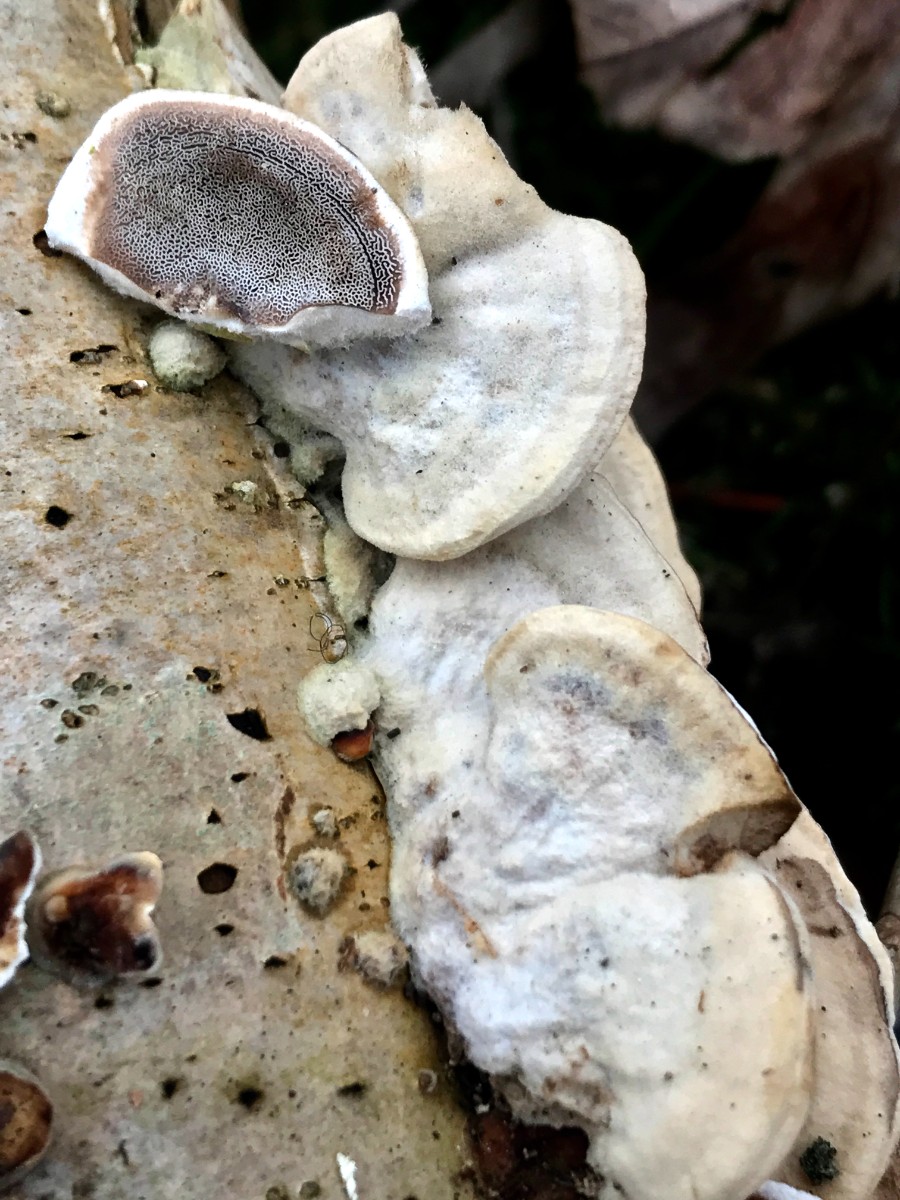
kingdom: Fungi
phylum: Basidiomycota
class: Agaricomycetes
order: Polyporales
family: Phanerochaetaceae
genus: Bjerkandera
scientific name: Bjerkandera adusta
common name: sveden sodporesvamp
